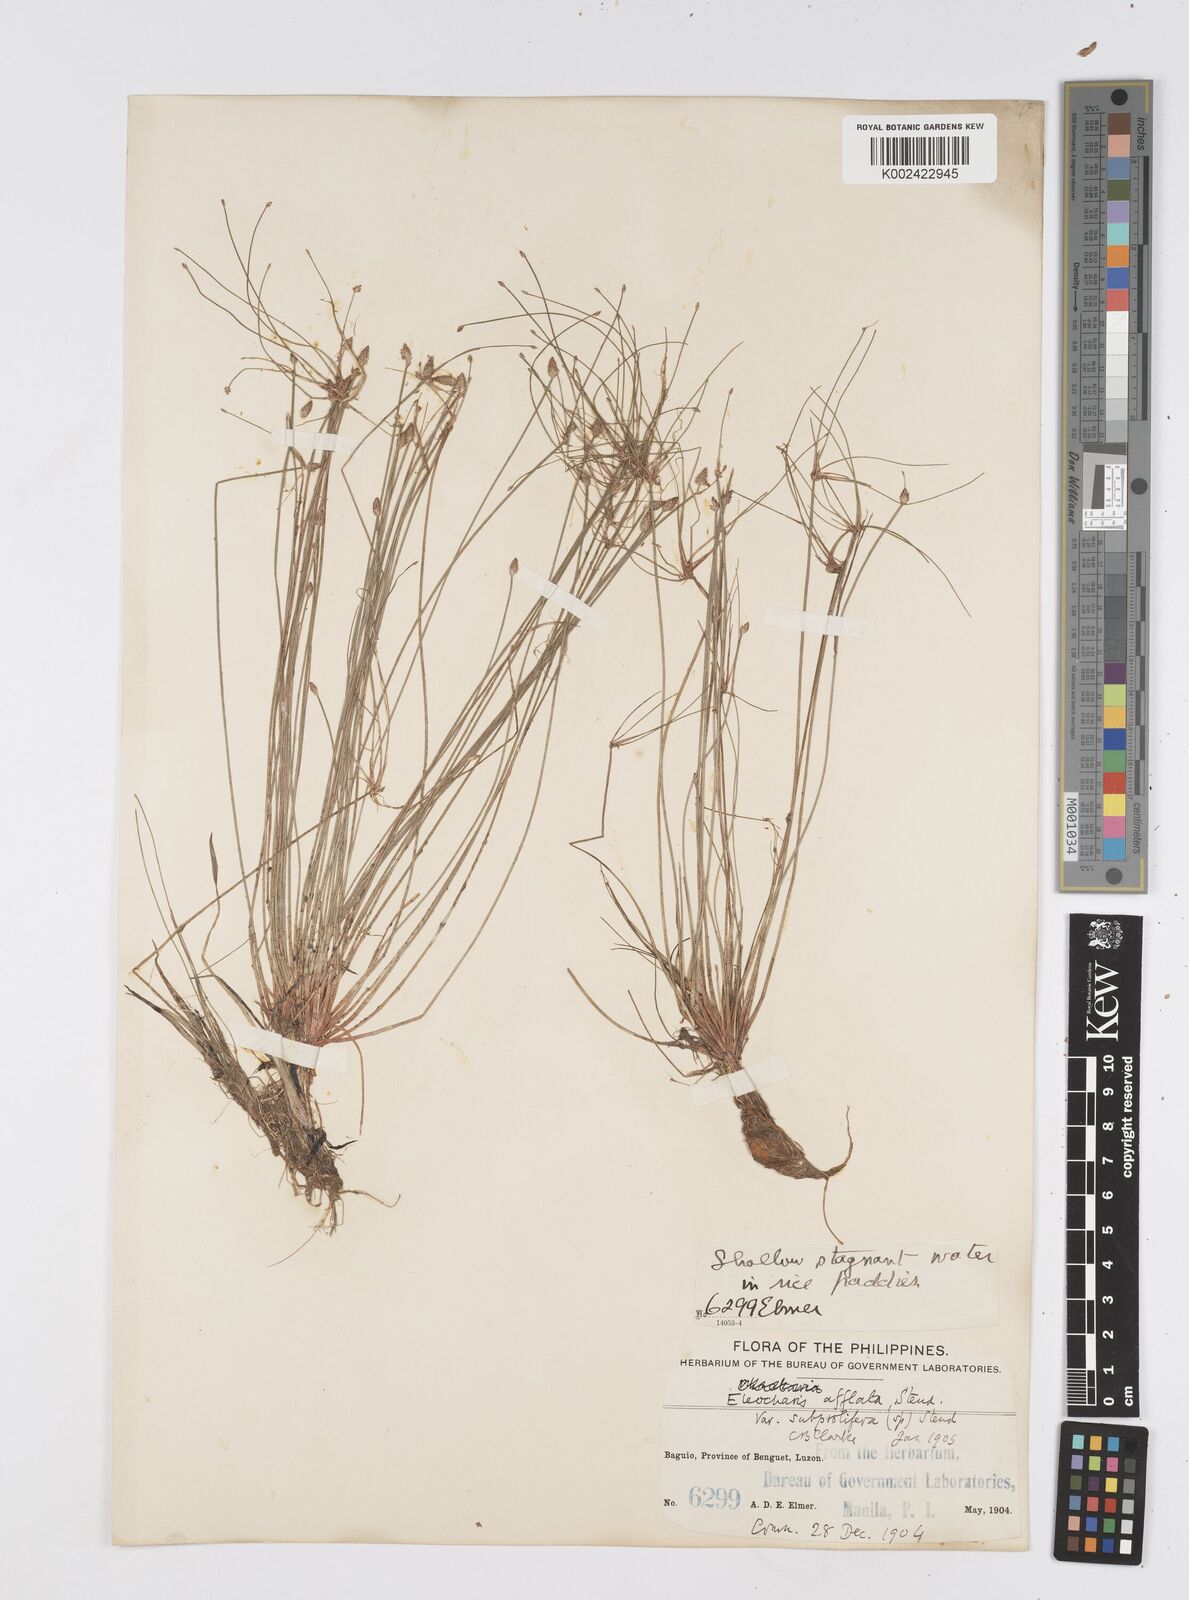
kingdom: Plantae
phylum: Tracheophyta
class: Liliopsida
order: Poales
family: Cyperaceae
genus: Eleocharis
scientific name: Eleocharis congesta
